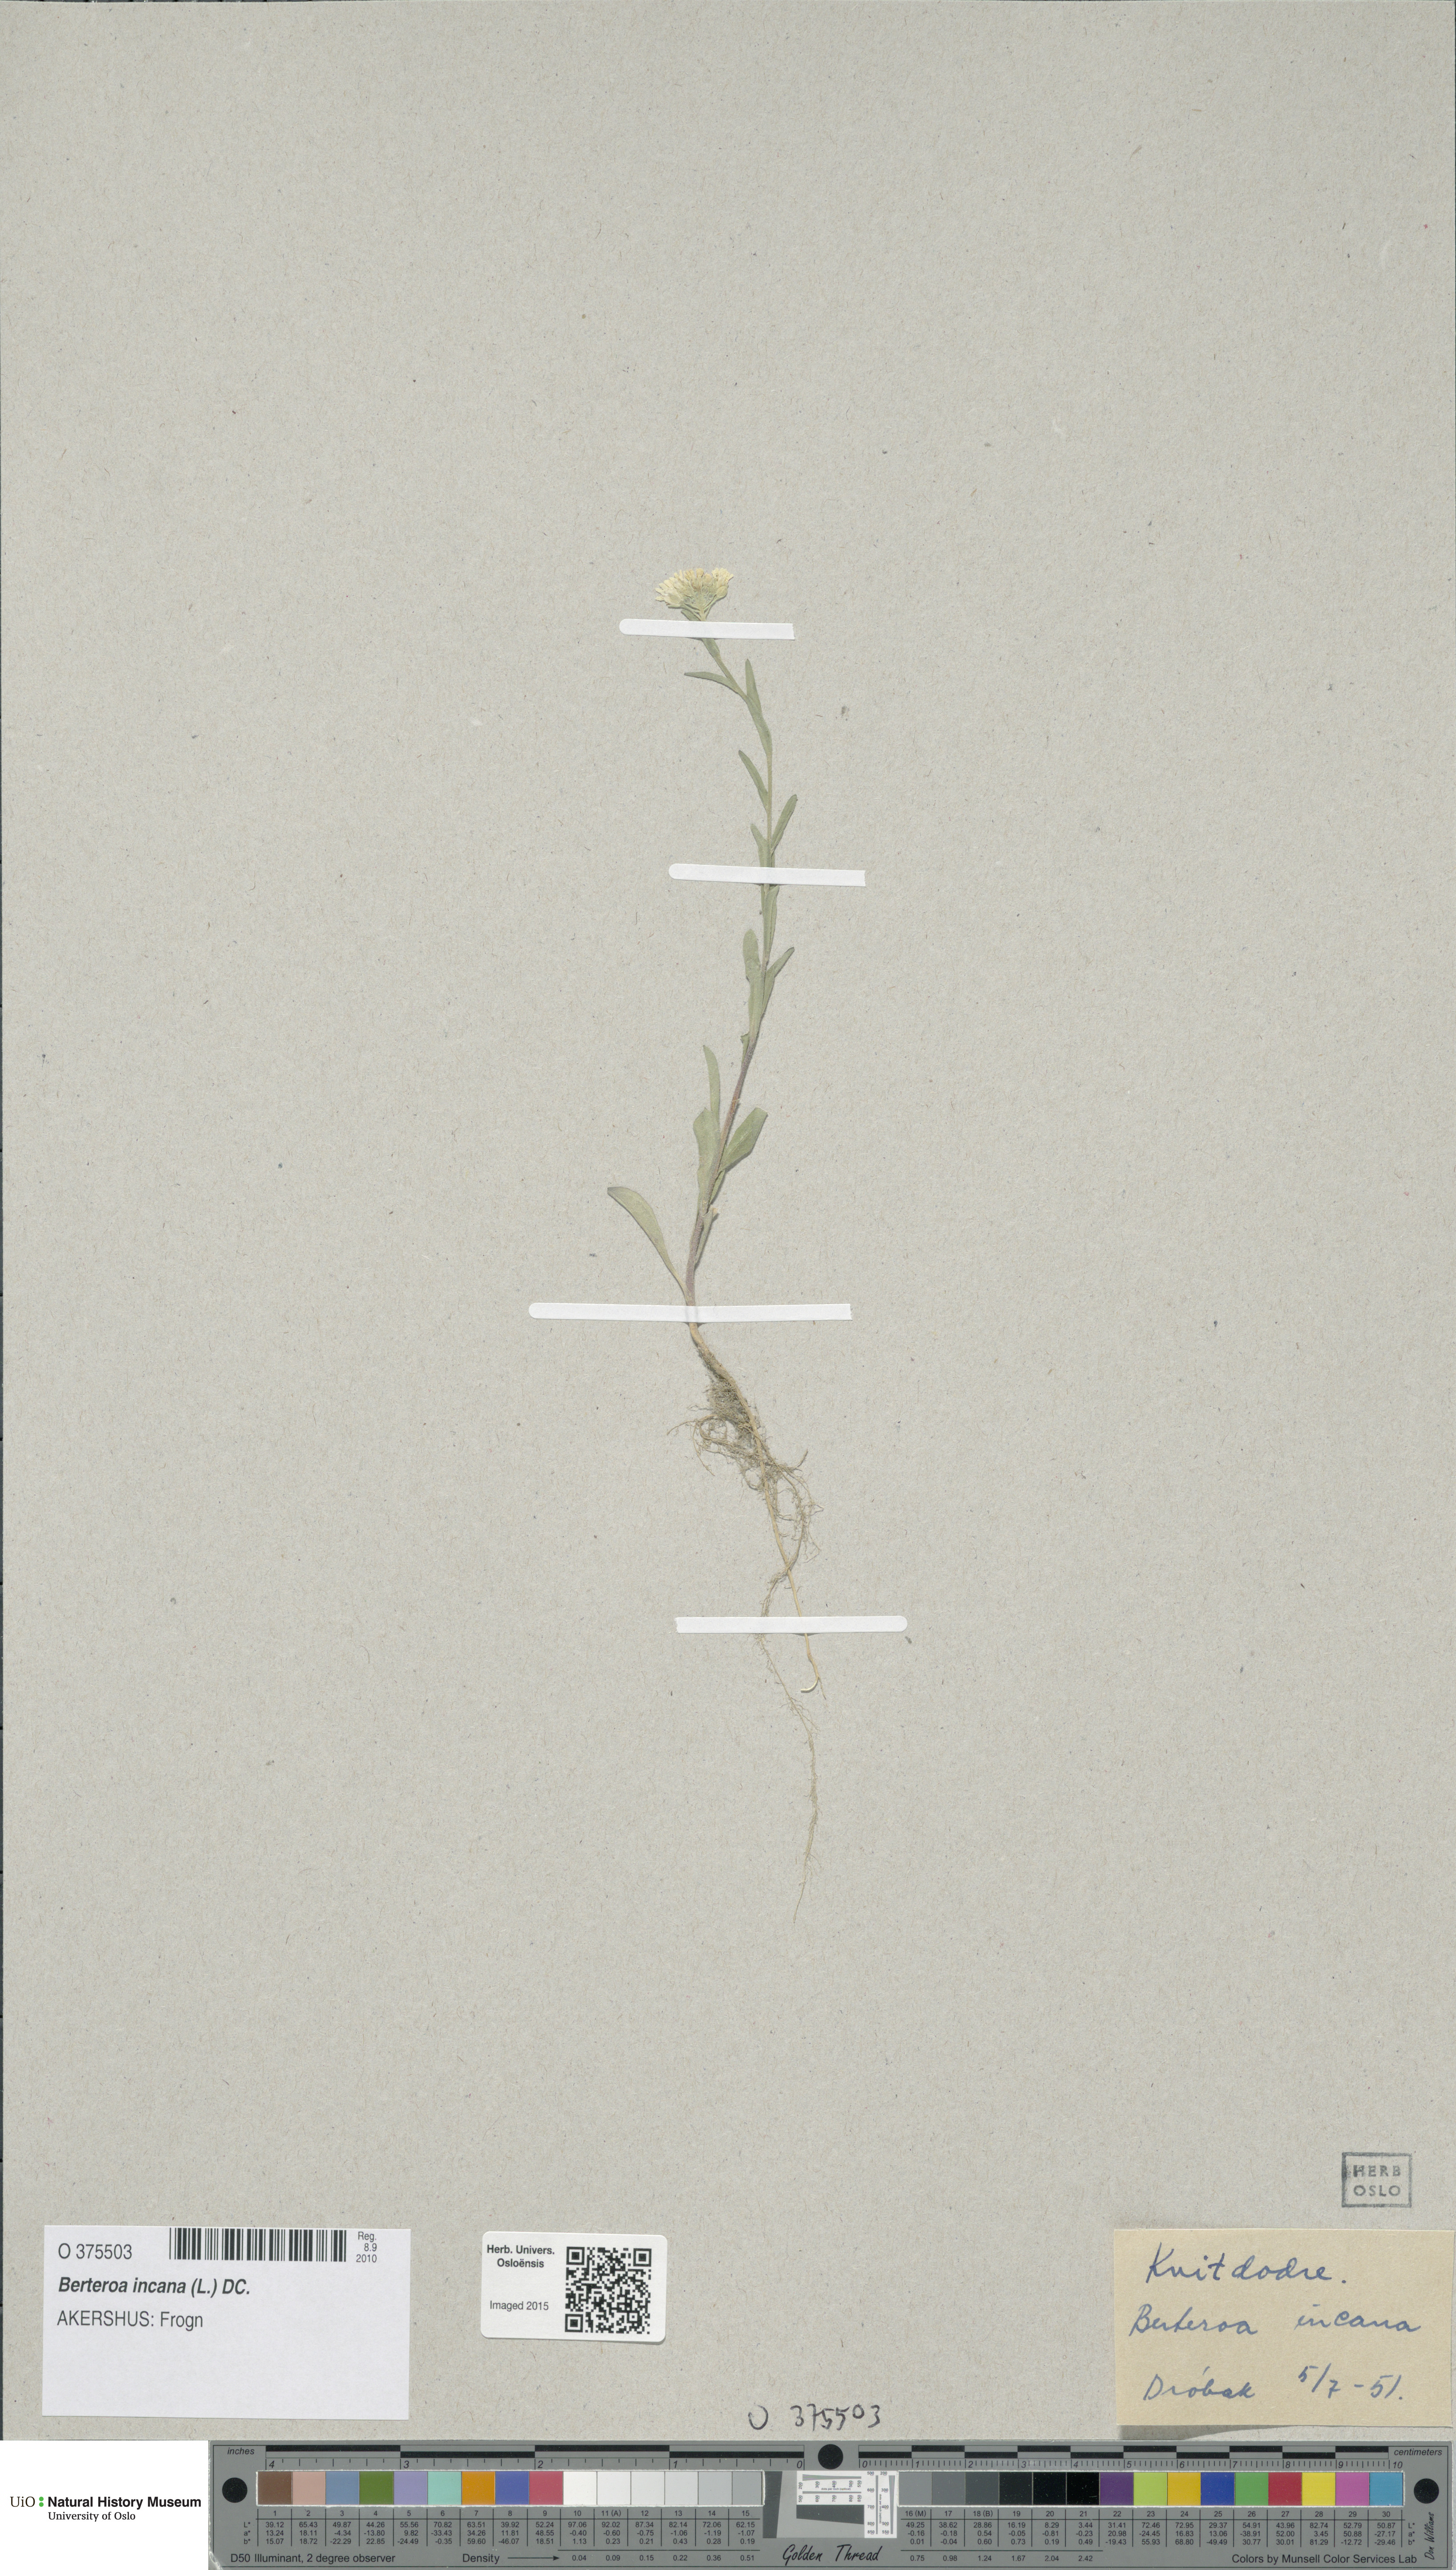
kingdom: Plantae
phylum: Tracheophyta
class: Magnoliopsida
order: Brassicales
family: Brassicaceae
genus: Berteroa
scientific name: Berteroa incana
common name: Hoary alison
